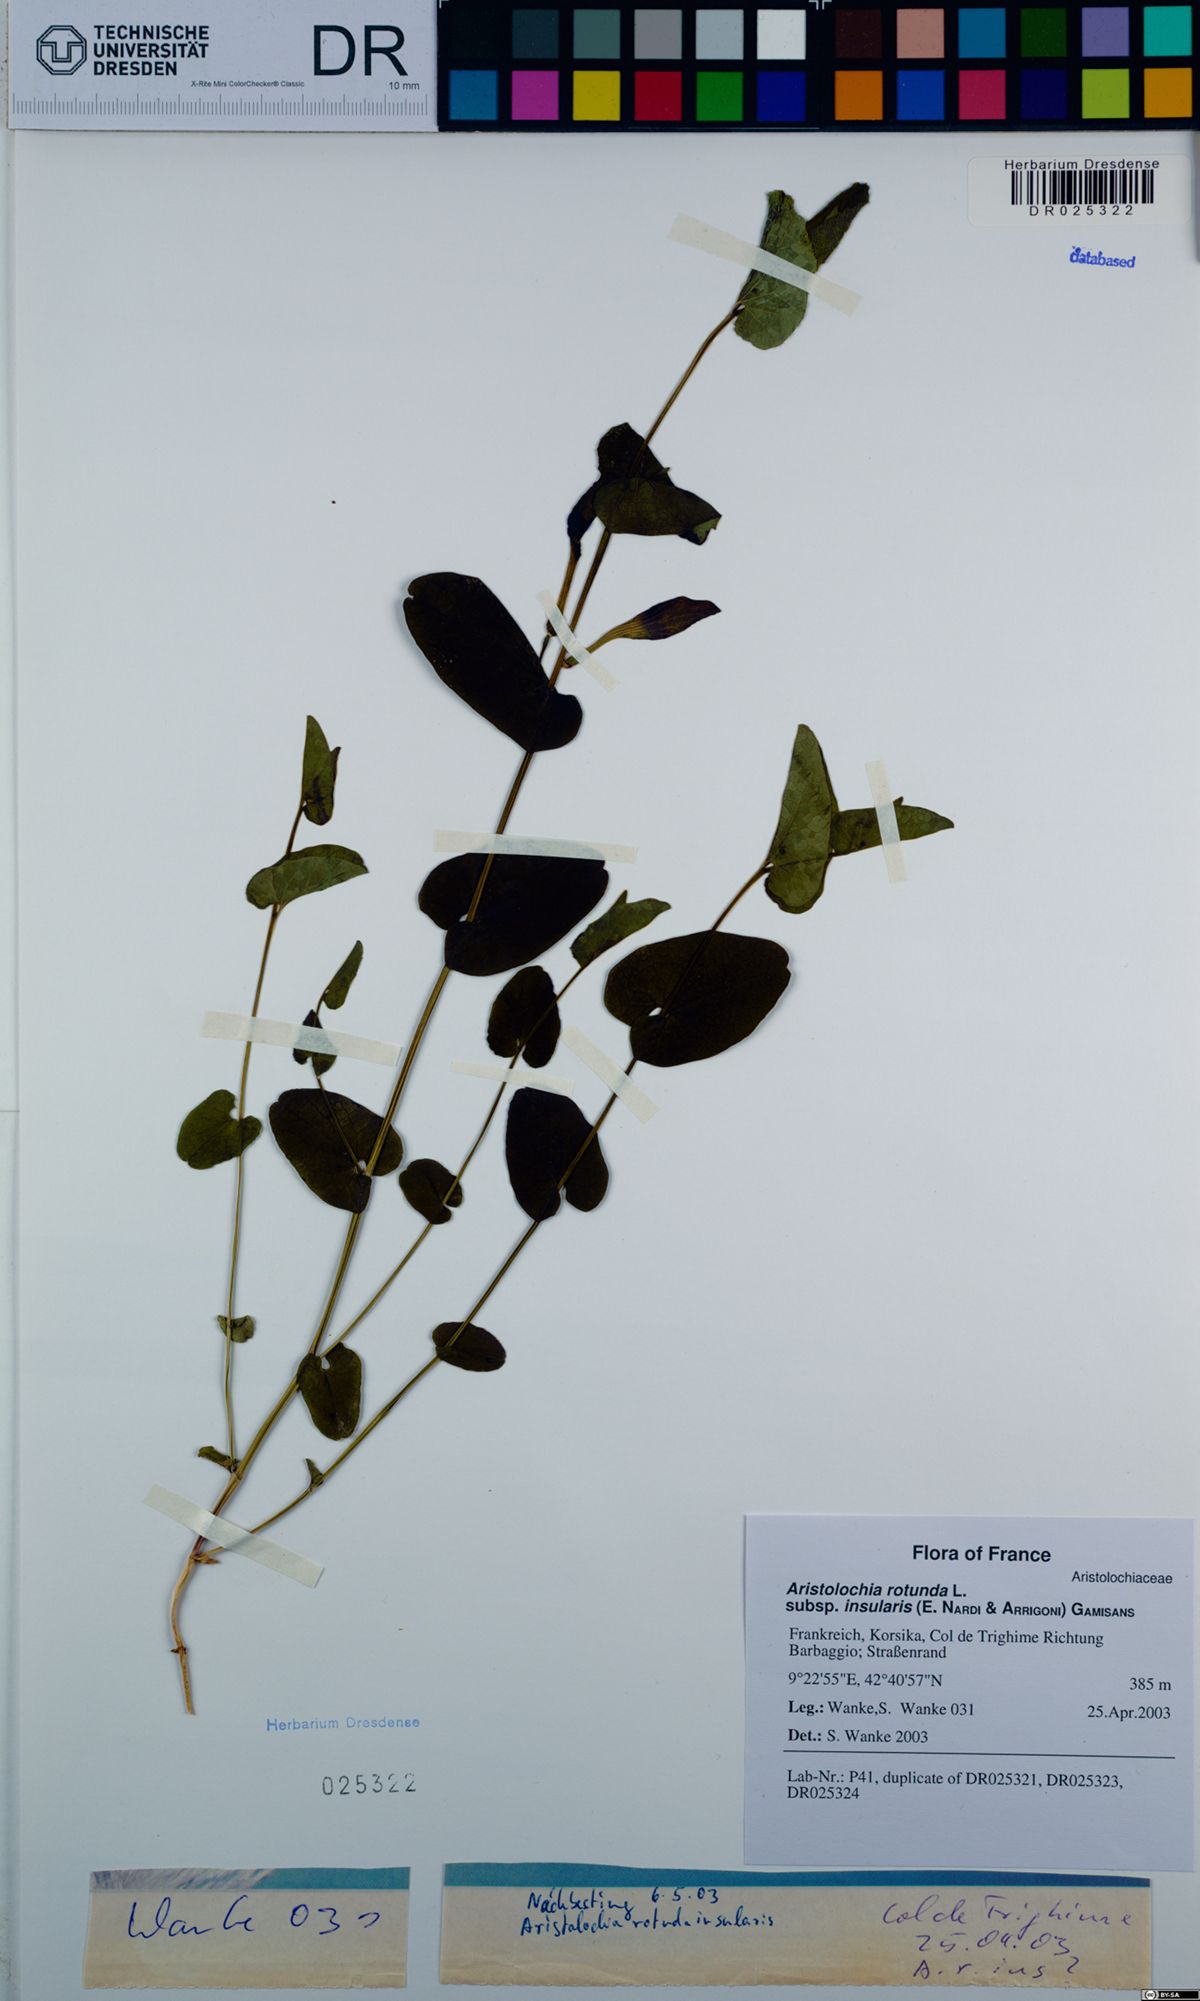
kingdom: Plantae
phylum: Tracheophyta
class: Magnoliopsida
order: Piperales
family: Aristolochiaceae
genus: Aristolochia
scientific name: Aristolochia rotunda
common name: Smearwort
